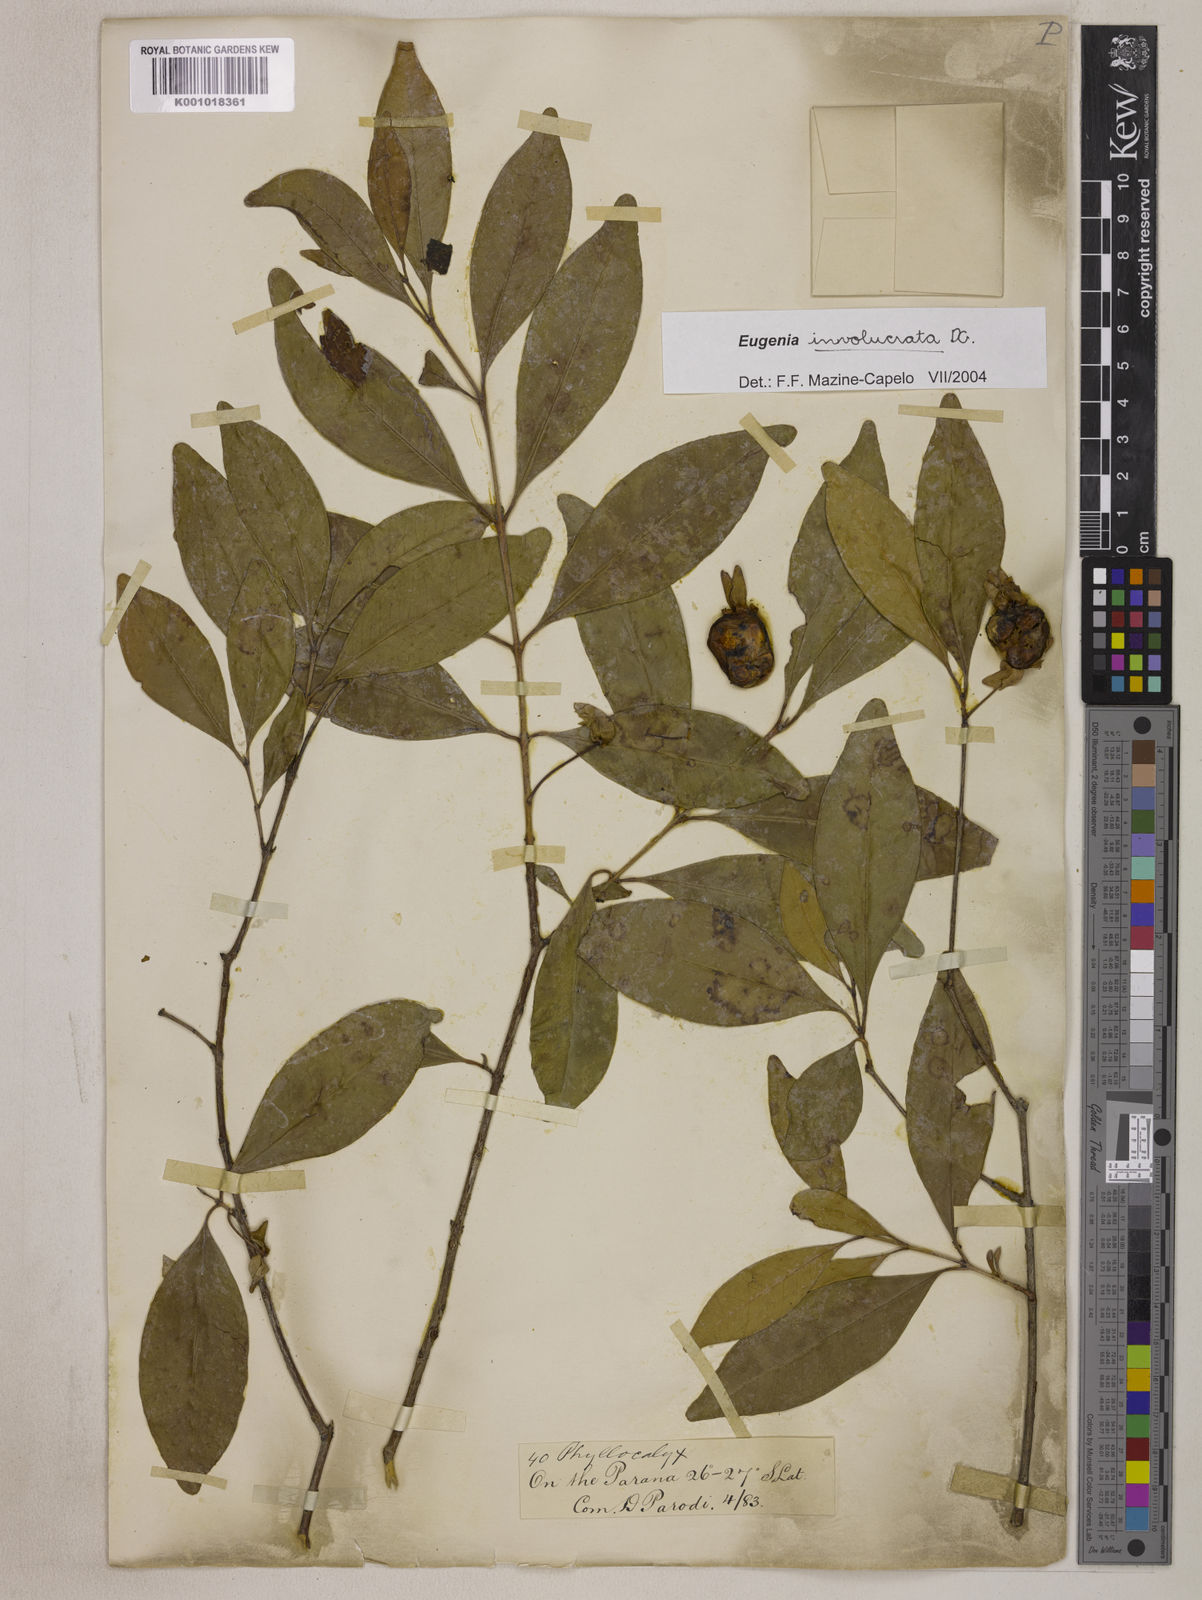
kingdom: Plantae
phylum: Tracheophyta
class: Magnoliopsida
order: Myrtales
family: Myrtaceae
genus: Eugenia
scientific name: Eugenia involucrata
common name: Cherry-of-the-rio grande
